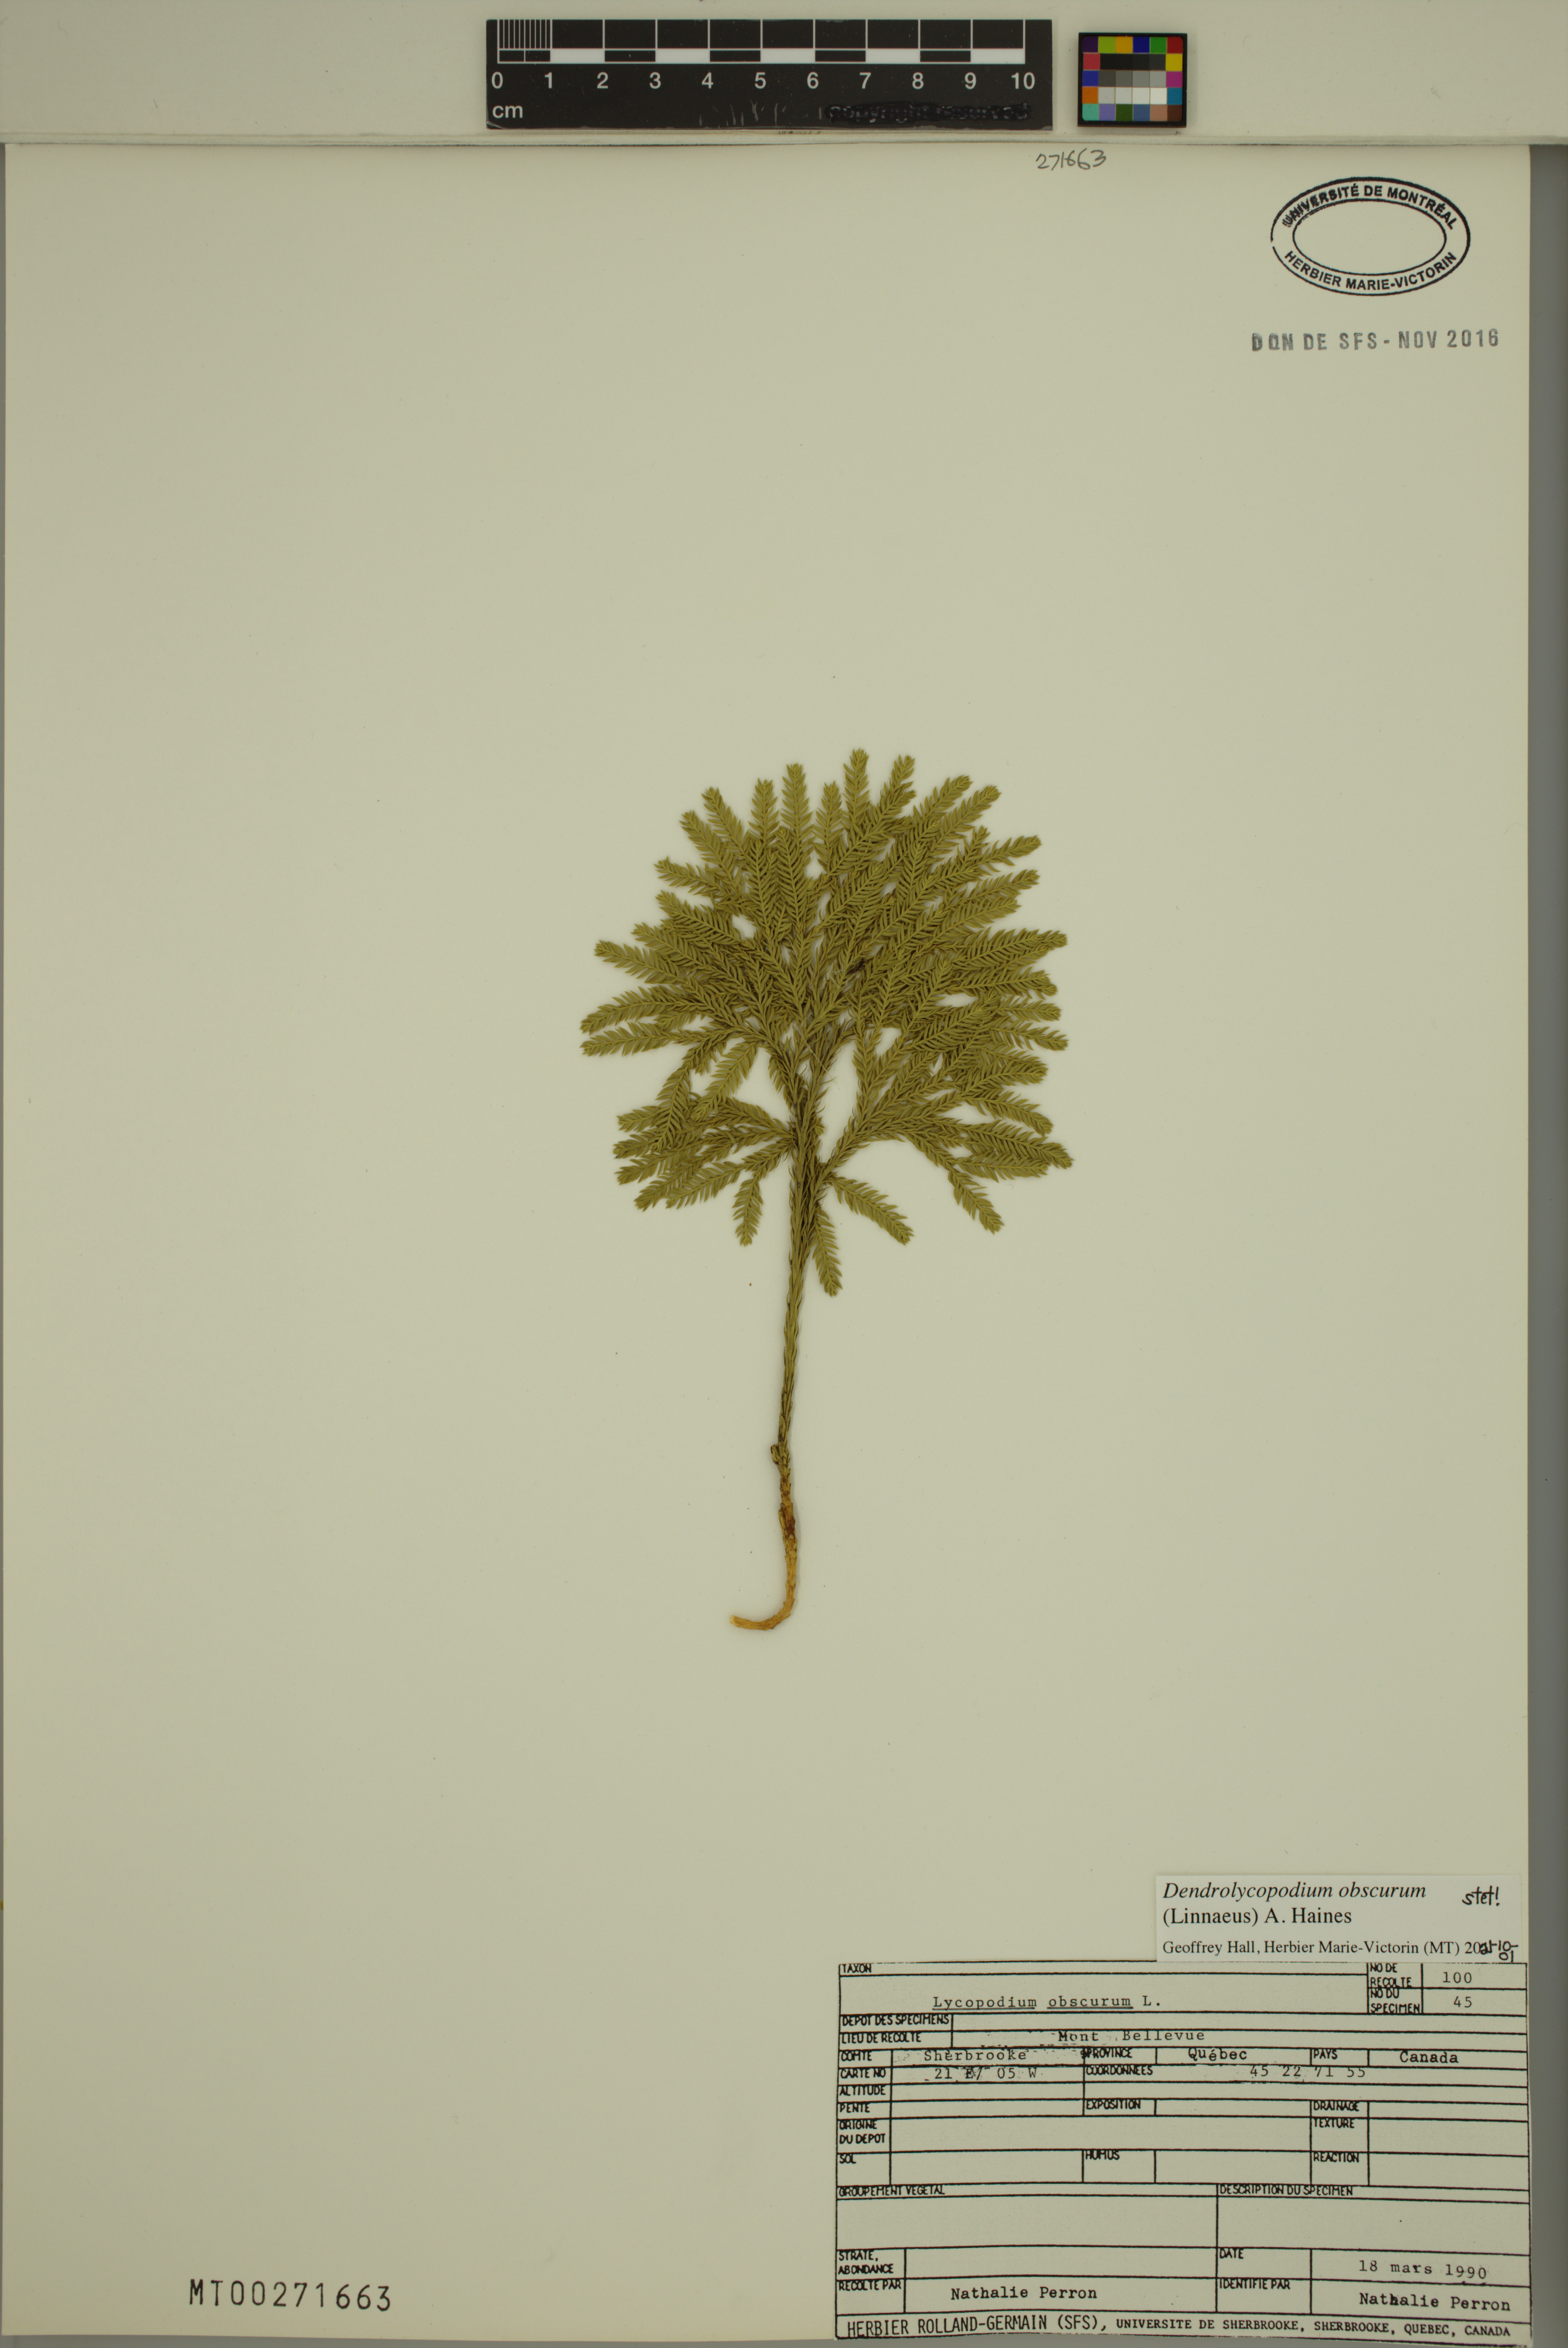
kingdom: Plantae
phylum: Tracheophyta
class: Lycopodiopsida
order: Lycopodiales
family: Lycopodiaceae
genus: Dendrolycopodium
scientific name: Dendrolycopodium obscurum
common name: Common ground-pine
